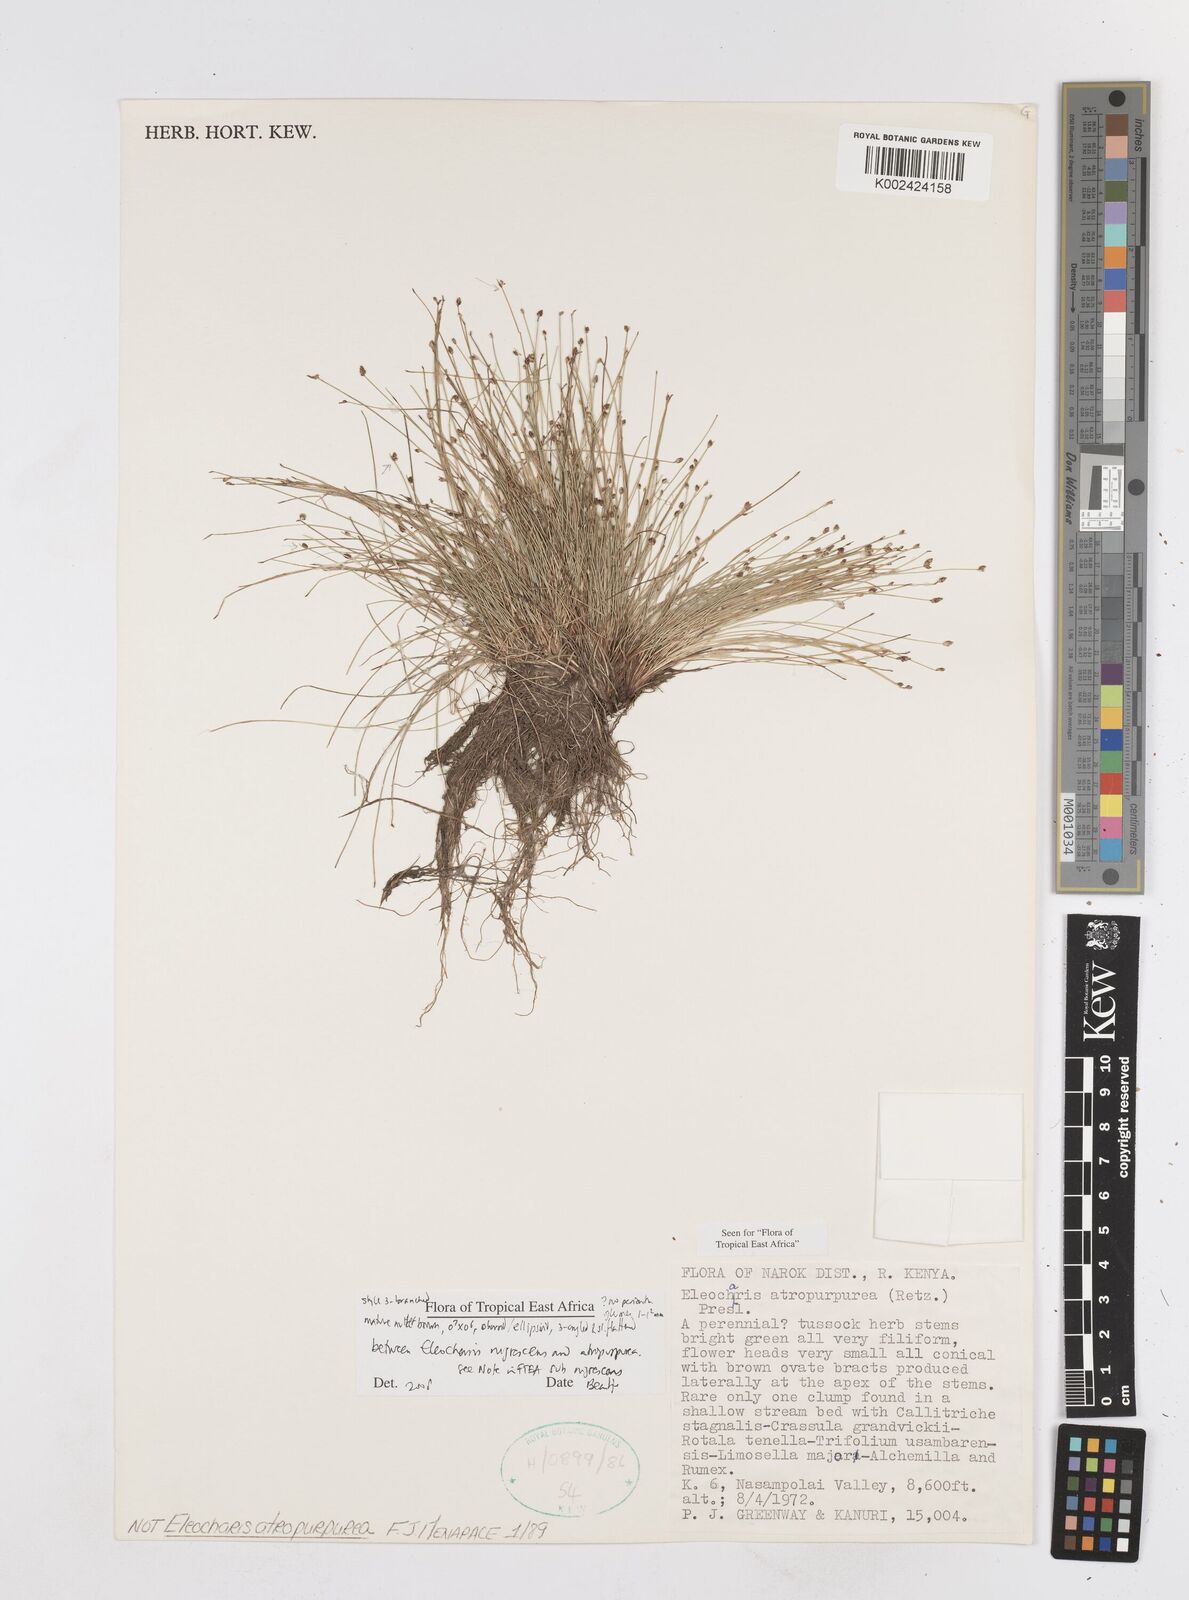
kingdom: Plantae
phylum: Tracheophyta
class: Liliopsida
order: Poales
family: Cyperaceae
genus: Eleocharis
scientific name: Eleocharis nigrescens
